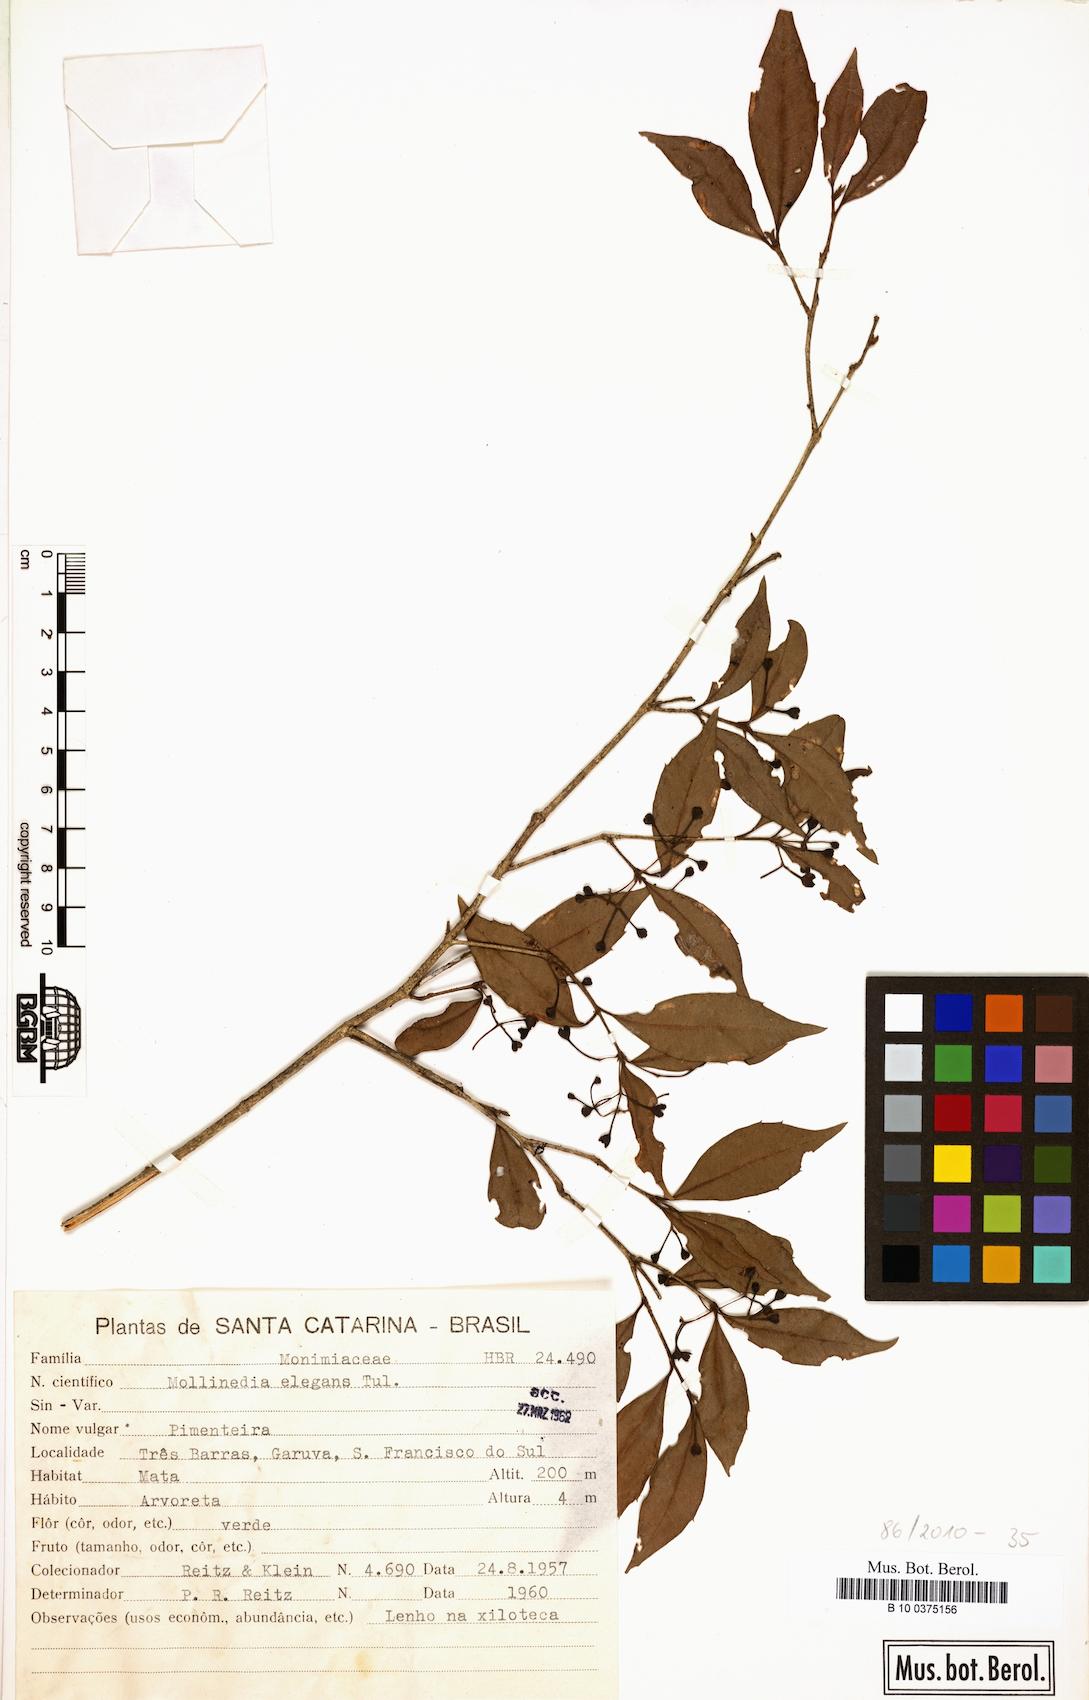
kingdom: Plantae
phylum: Tracheophyta
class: Magnoliopsida
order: Laurales
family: Monimiaceae
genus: Mollinedia
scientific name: Mollinedia elegans
